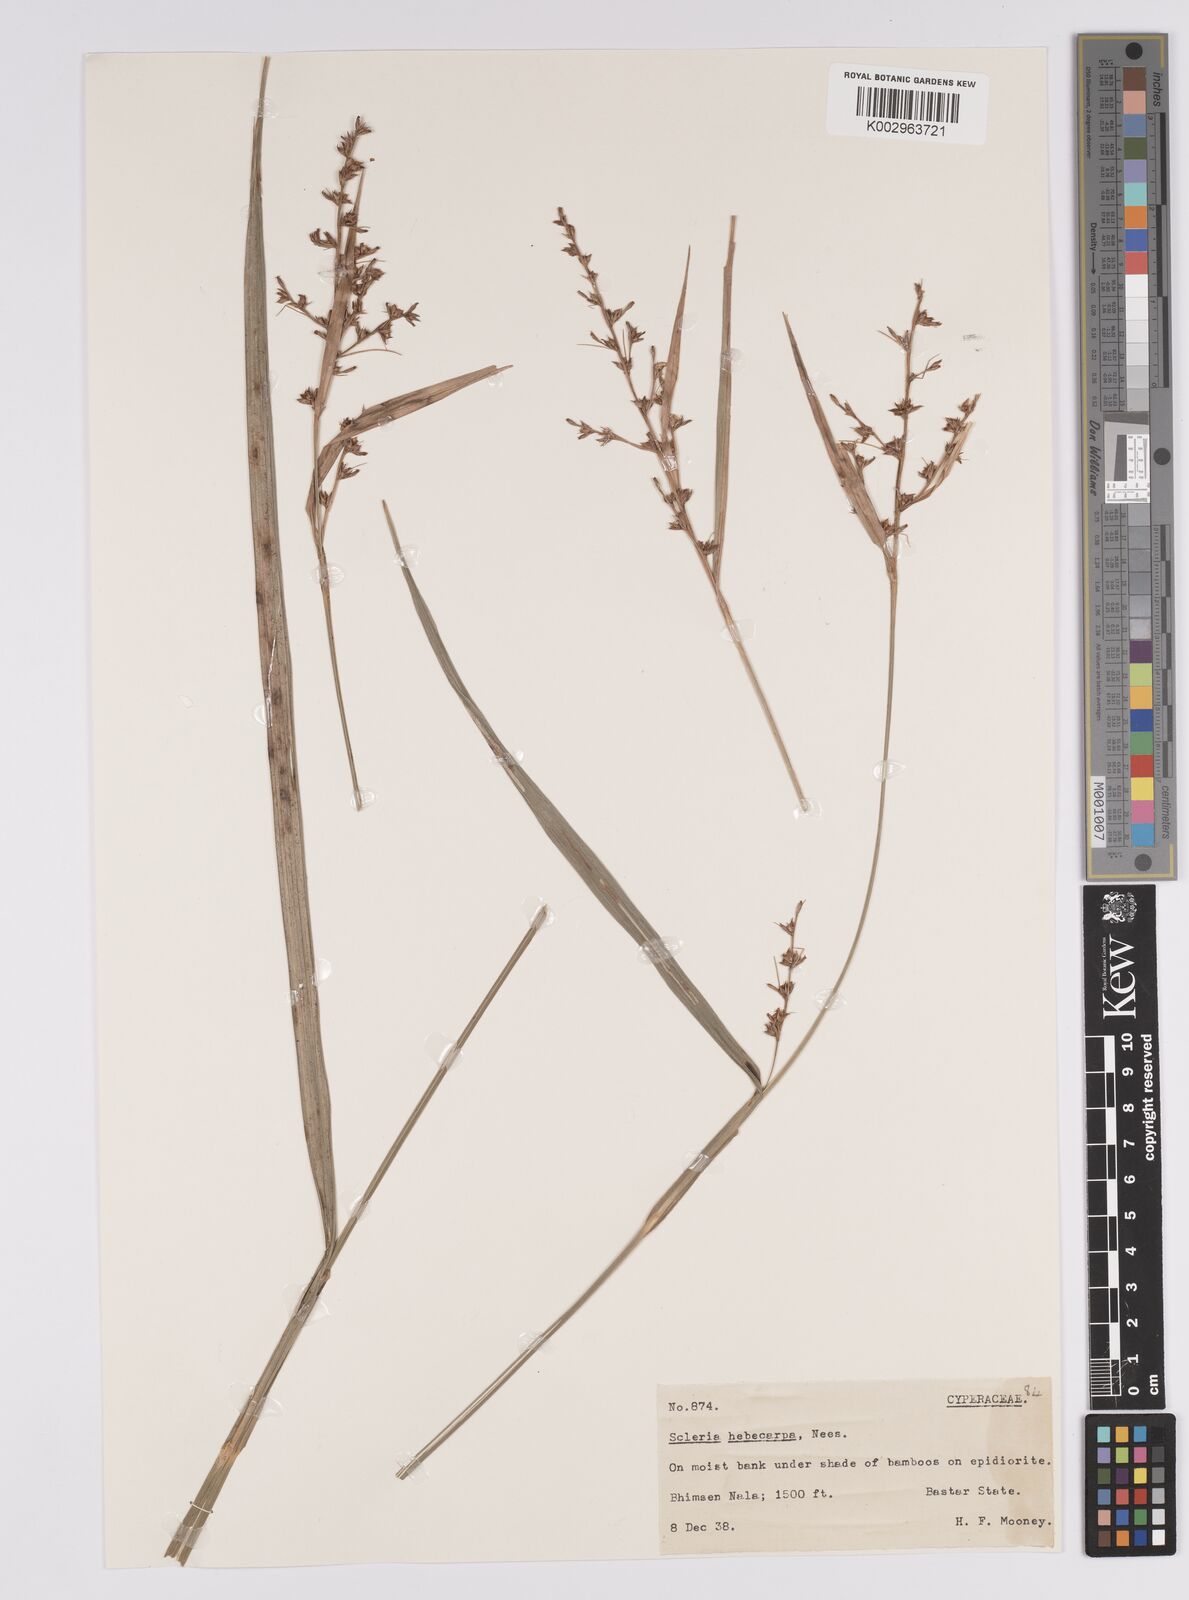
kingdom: Plantae
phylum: Tracheophyta
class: Liliopsida
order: Poales
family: Cyperaceae
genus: Scleria
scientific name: Scleria levis
